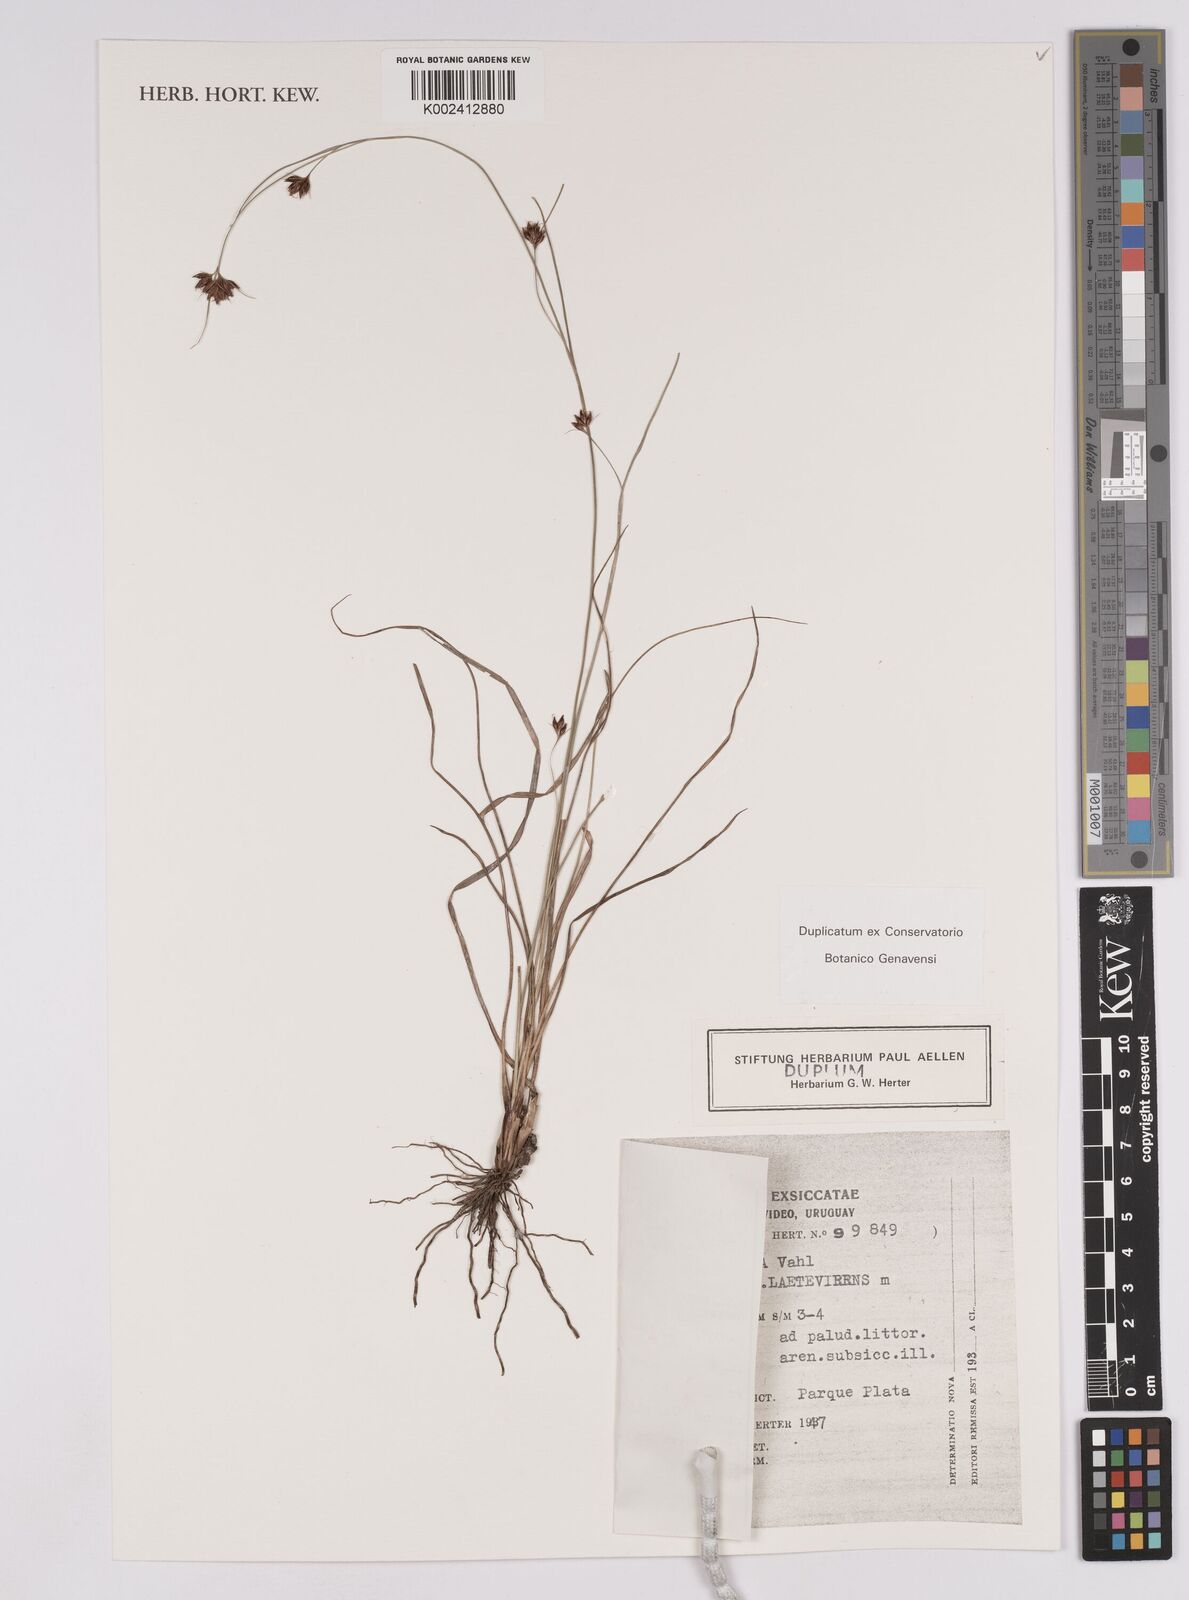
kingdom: Plantae
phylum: Tracheophyta
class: Liliopsida
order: Poales
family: Cyperaceae
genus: Rhynchospora
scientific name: Rhynchospora barrosiana
